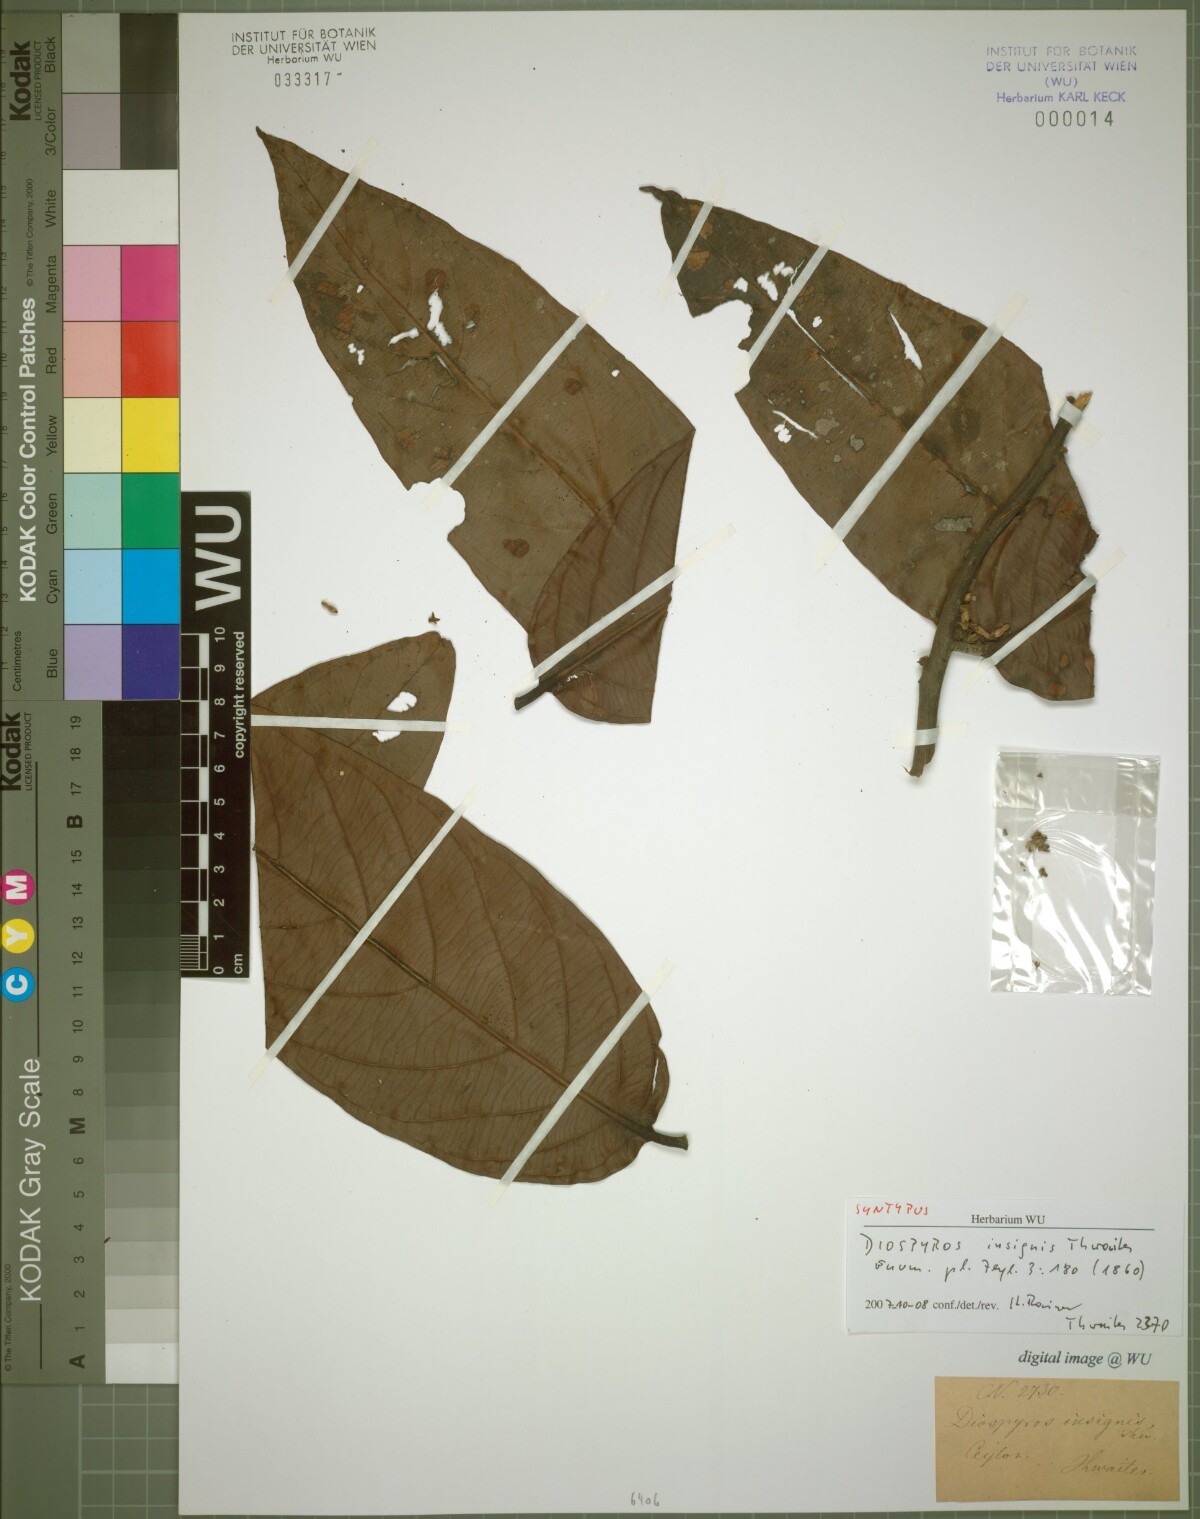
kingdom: Plantae
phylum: Tracheophyta
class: Magnoliopsida
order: Ericales
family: Ebenaceae
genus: Diospyros
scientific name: Diospyros insignis
